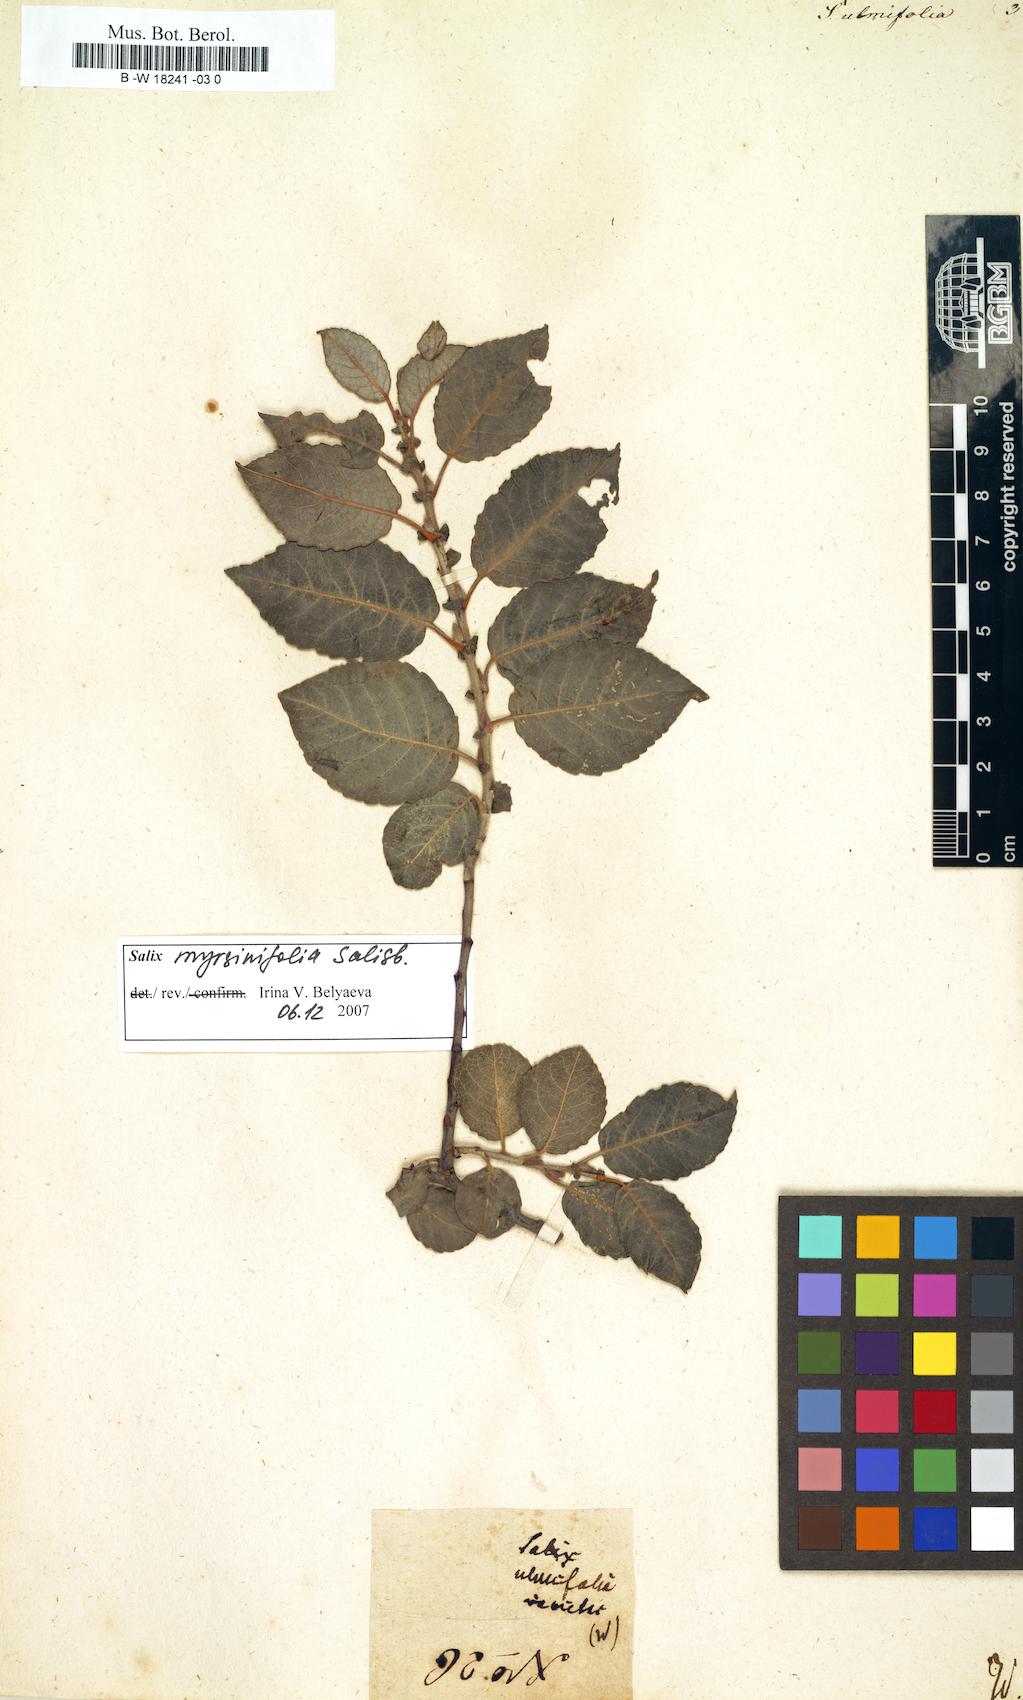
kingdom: Plantae
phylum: Tracheophyta
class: Magnoliopsida
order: Malpighiales
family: Salicaceae
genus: Salix
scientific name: Salix ulmifolia
